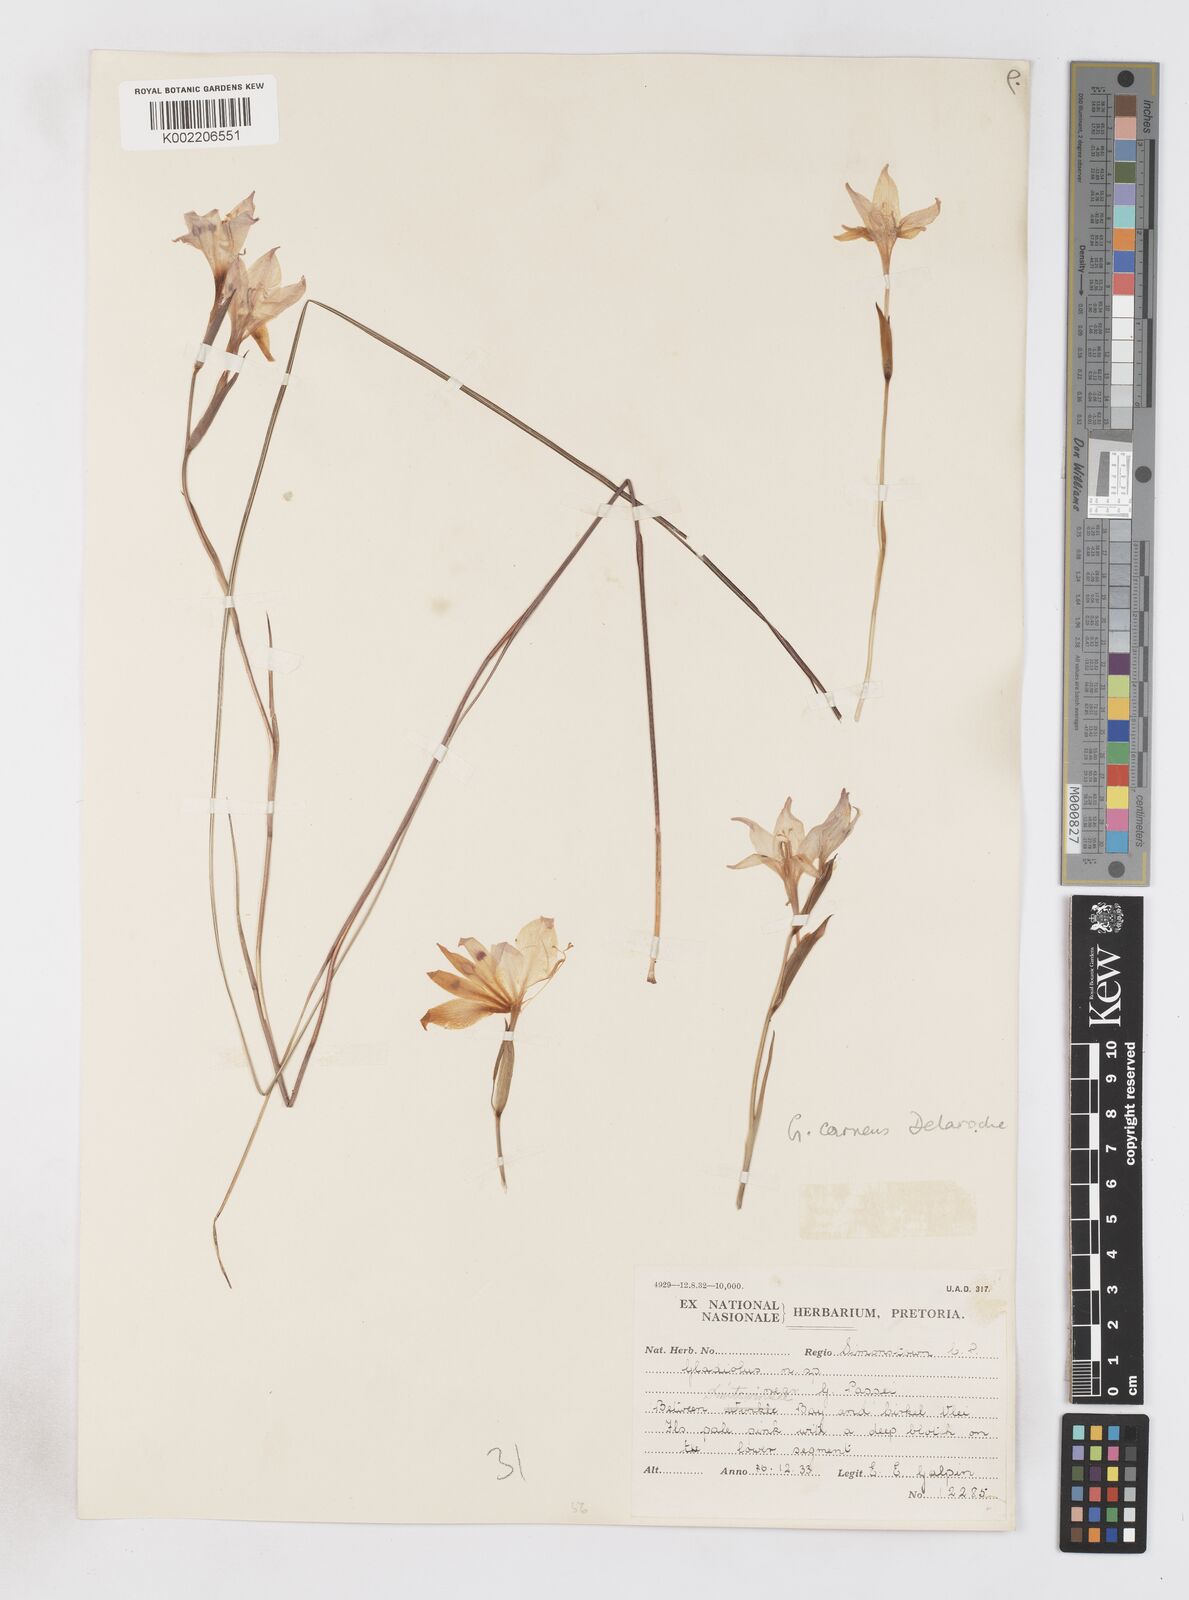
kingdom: Plantae
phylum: Tracheophyta
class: Liliopsida
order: Asparagales
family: Iridaceae
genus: Gladiolus
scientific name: Gladiolus pappei
